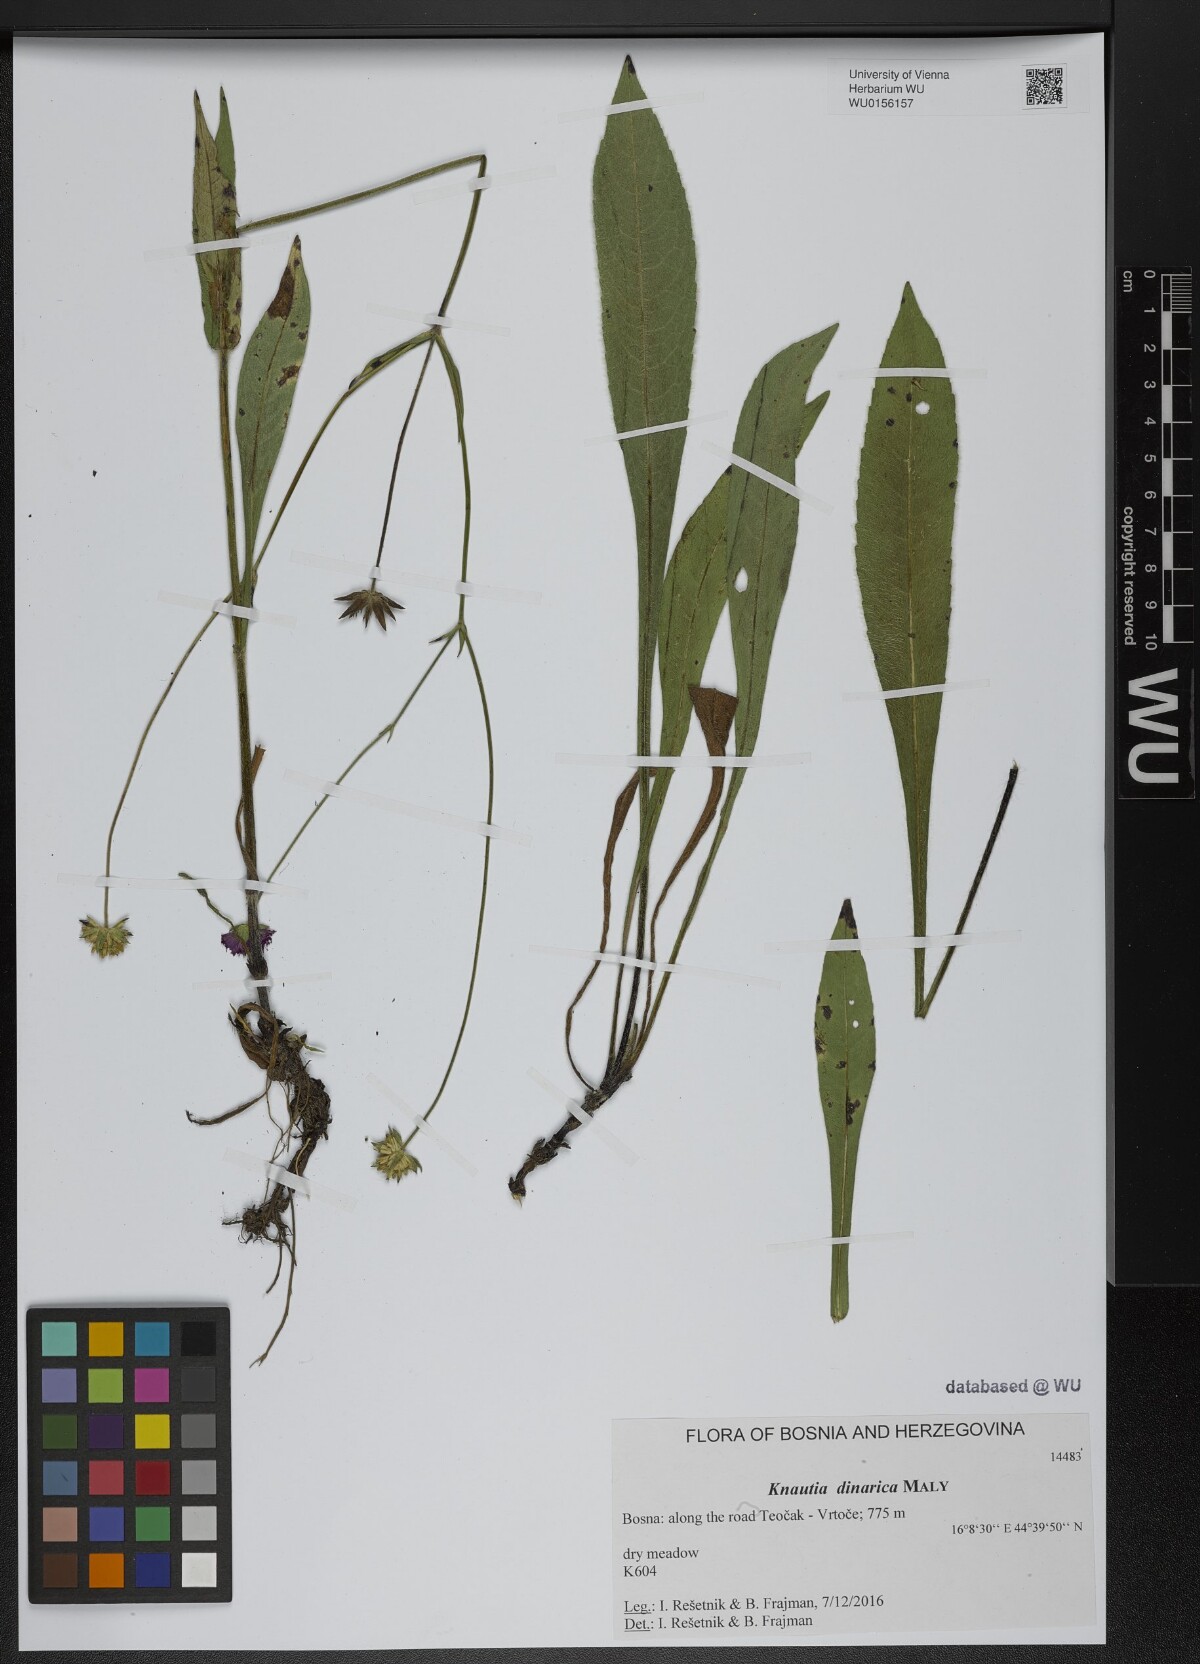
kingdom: Plantae
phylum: Tracheophyta
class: Magnoliopsida
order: Dipsacales
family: Caprifoliaceae
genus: Knautia
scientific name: Knautia dinarica
